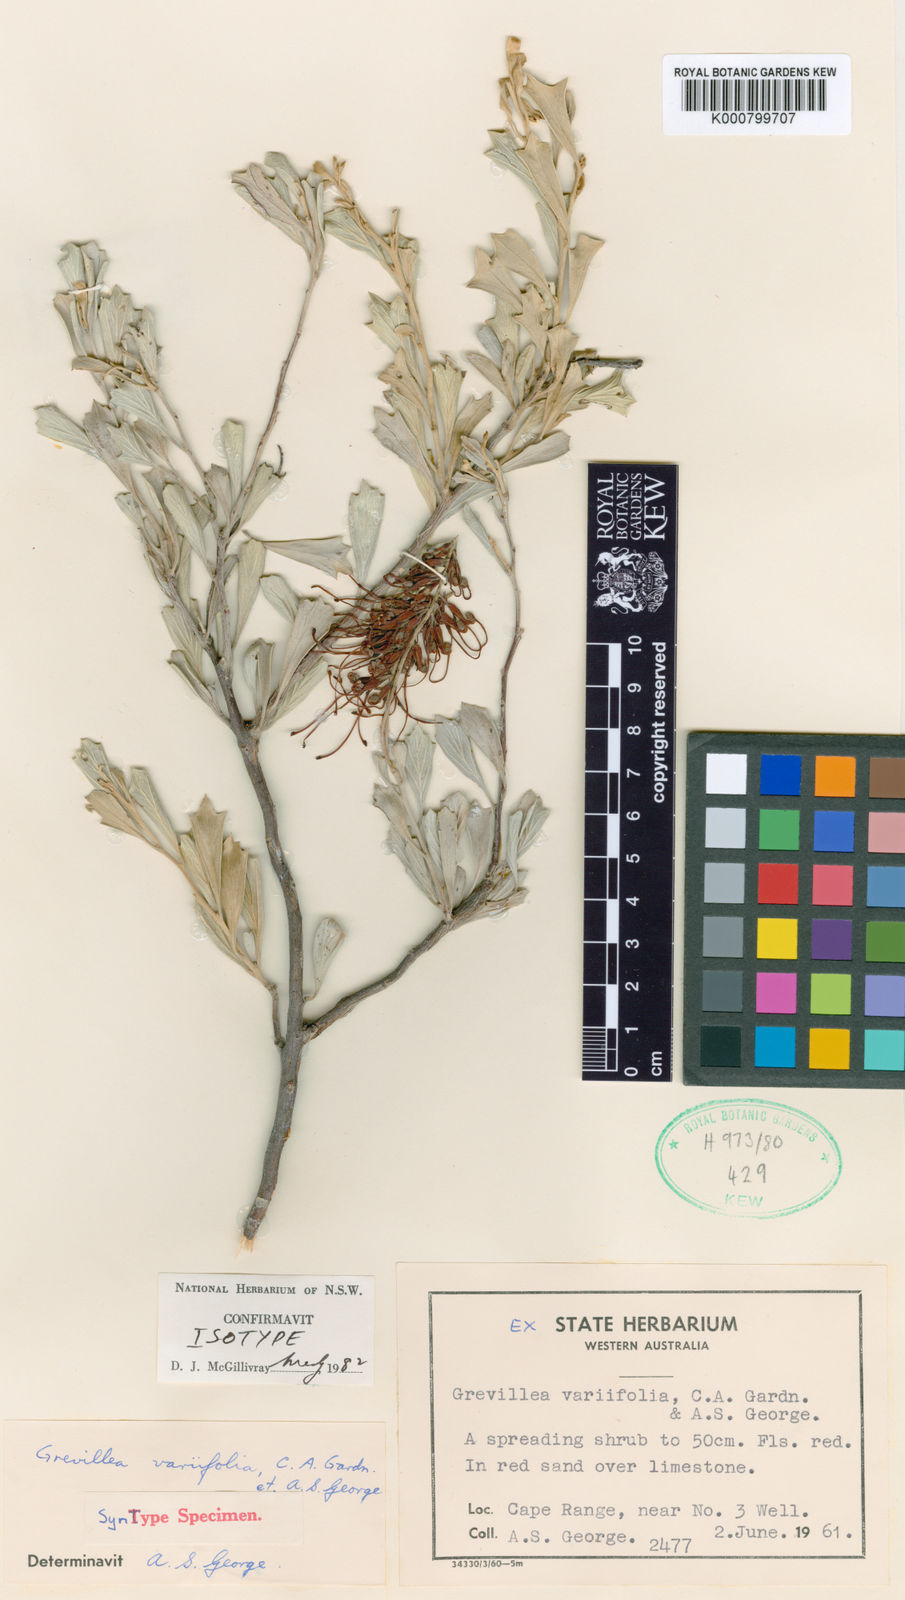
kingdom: Plantae
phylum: Tracheophyta
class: Magnoliopsida
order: Proteales
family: Proteaceae
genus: Grevillea
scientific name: Grevillea variifolia
